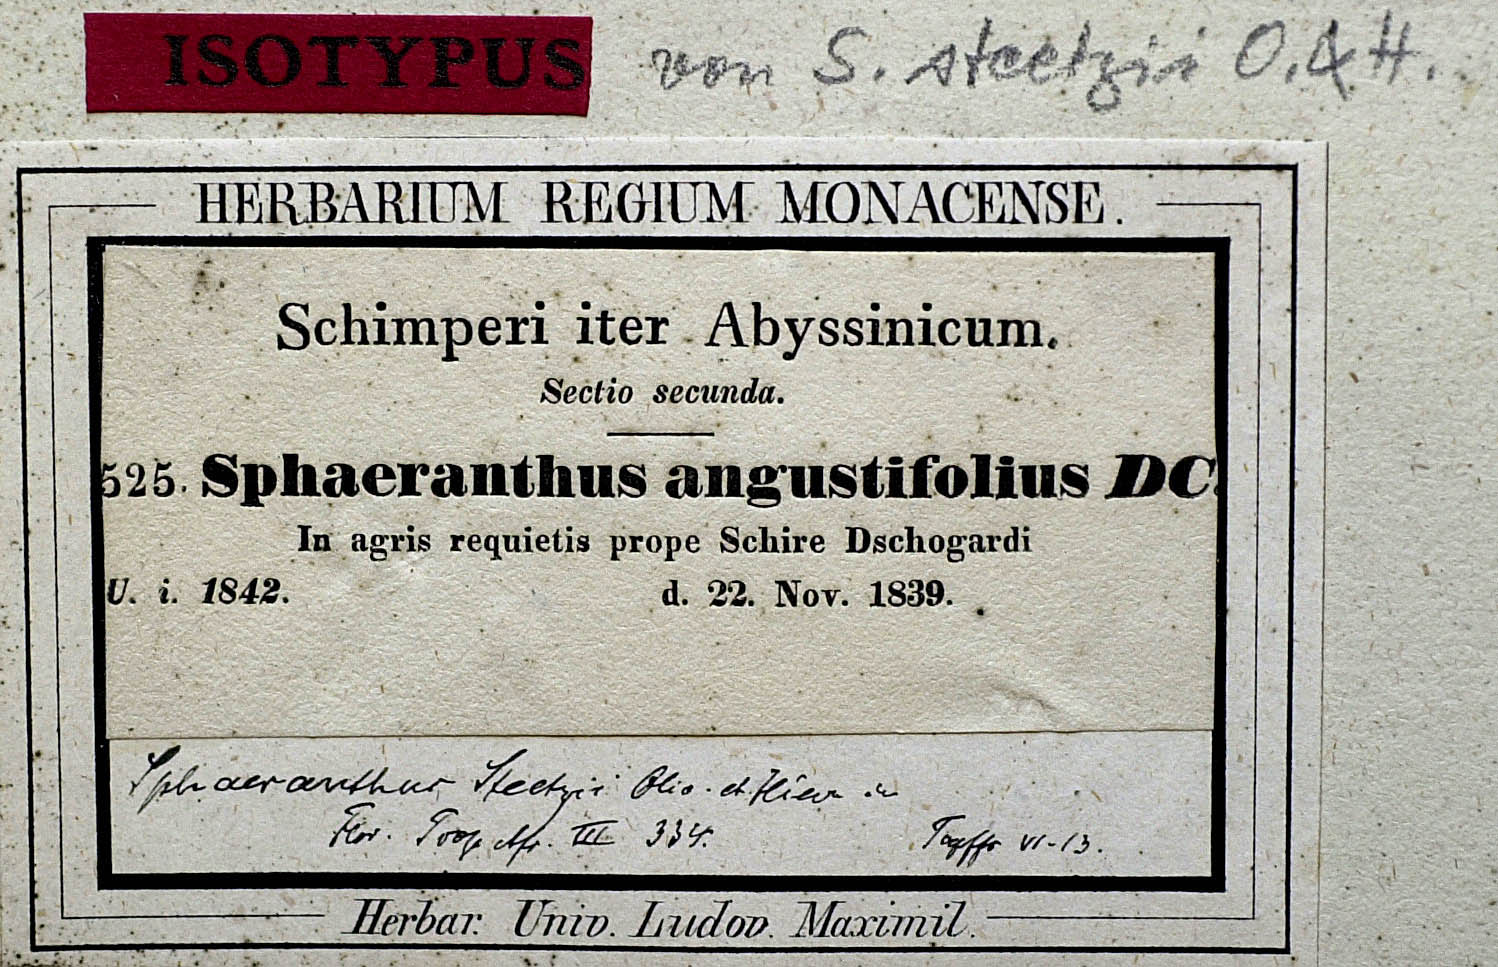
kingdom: Plantae
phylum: Tracheophyta
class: Magnoliopsida
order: Asterales
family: Asteraceae
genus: Sphaeranthus
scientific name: Sphaeranthus steetzii
